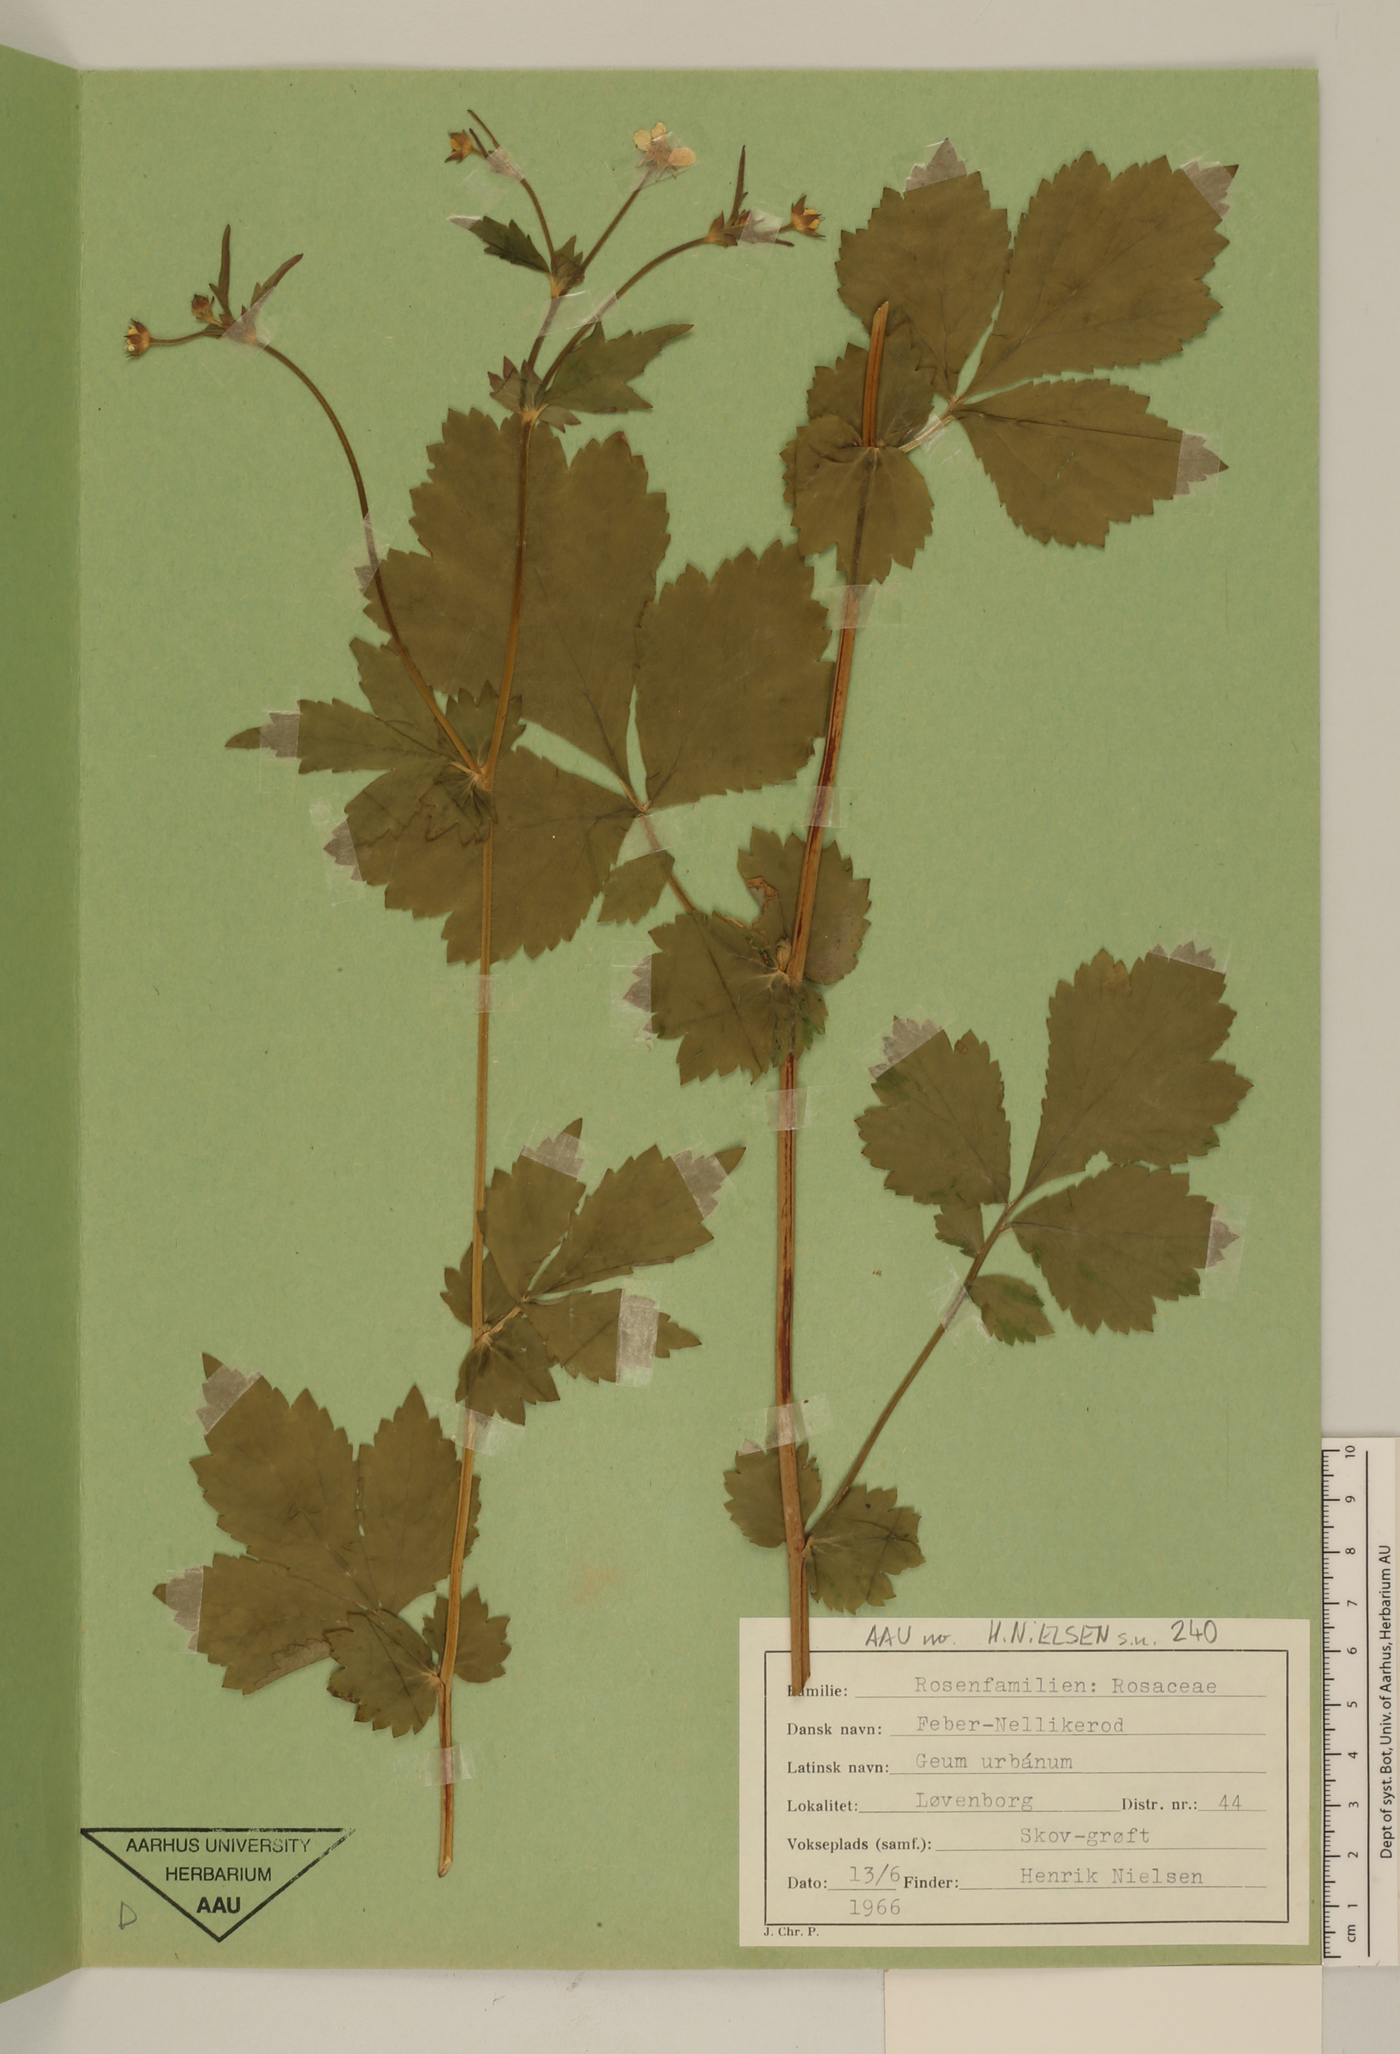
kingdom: Plantae
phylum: Tracheophyta
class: Magnoliopsida
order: Rosales
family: Rosaceae
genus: Geum
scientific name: Geum urbanum
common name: Wood avens
